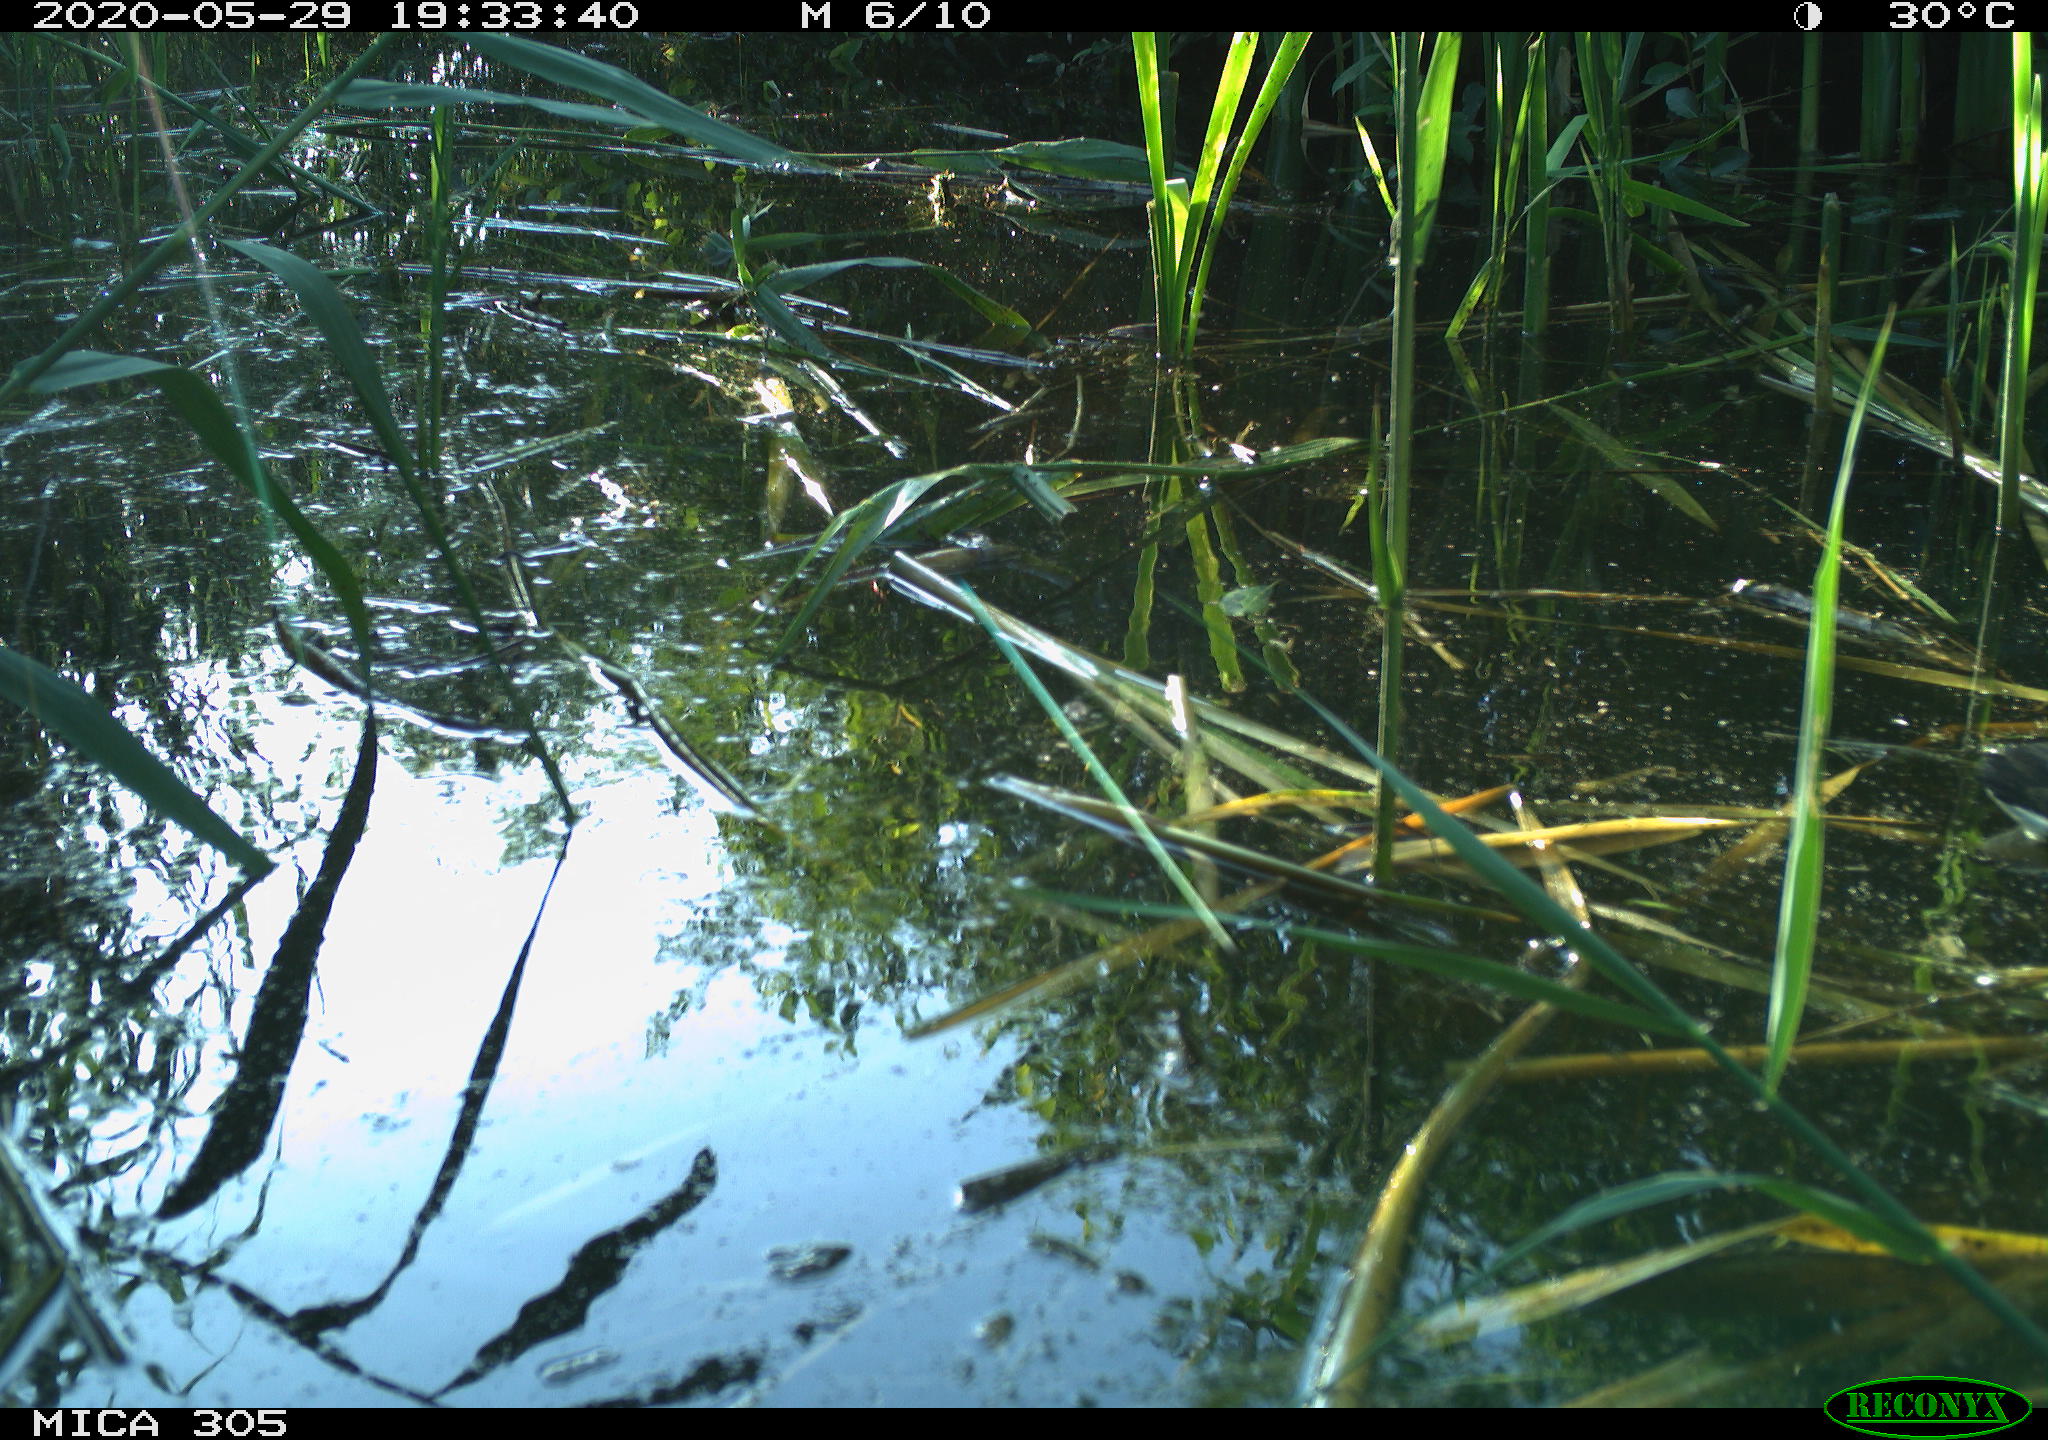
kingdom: Animalia
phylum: Chordata
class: Aves
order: Gruiformes
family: Rallidae
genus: Gallinula
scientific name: Gallinula chloropus
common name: Common moorhen
